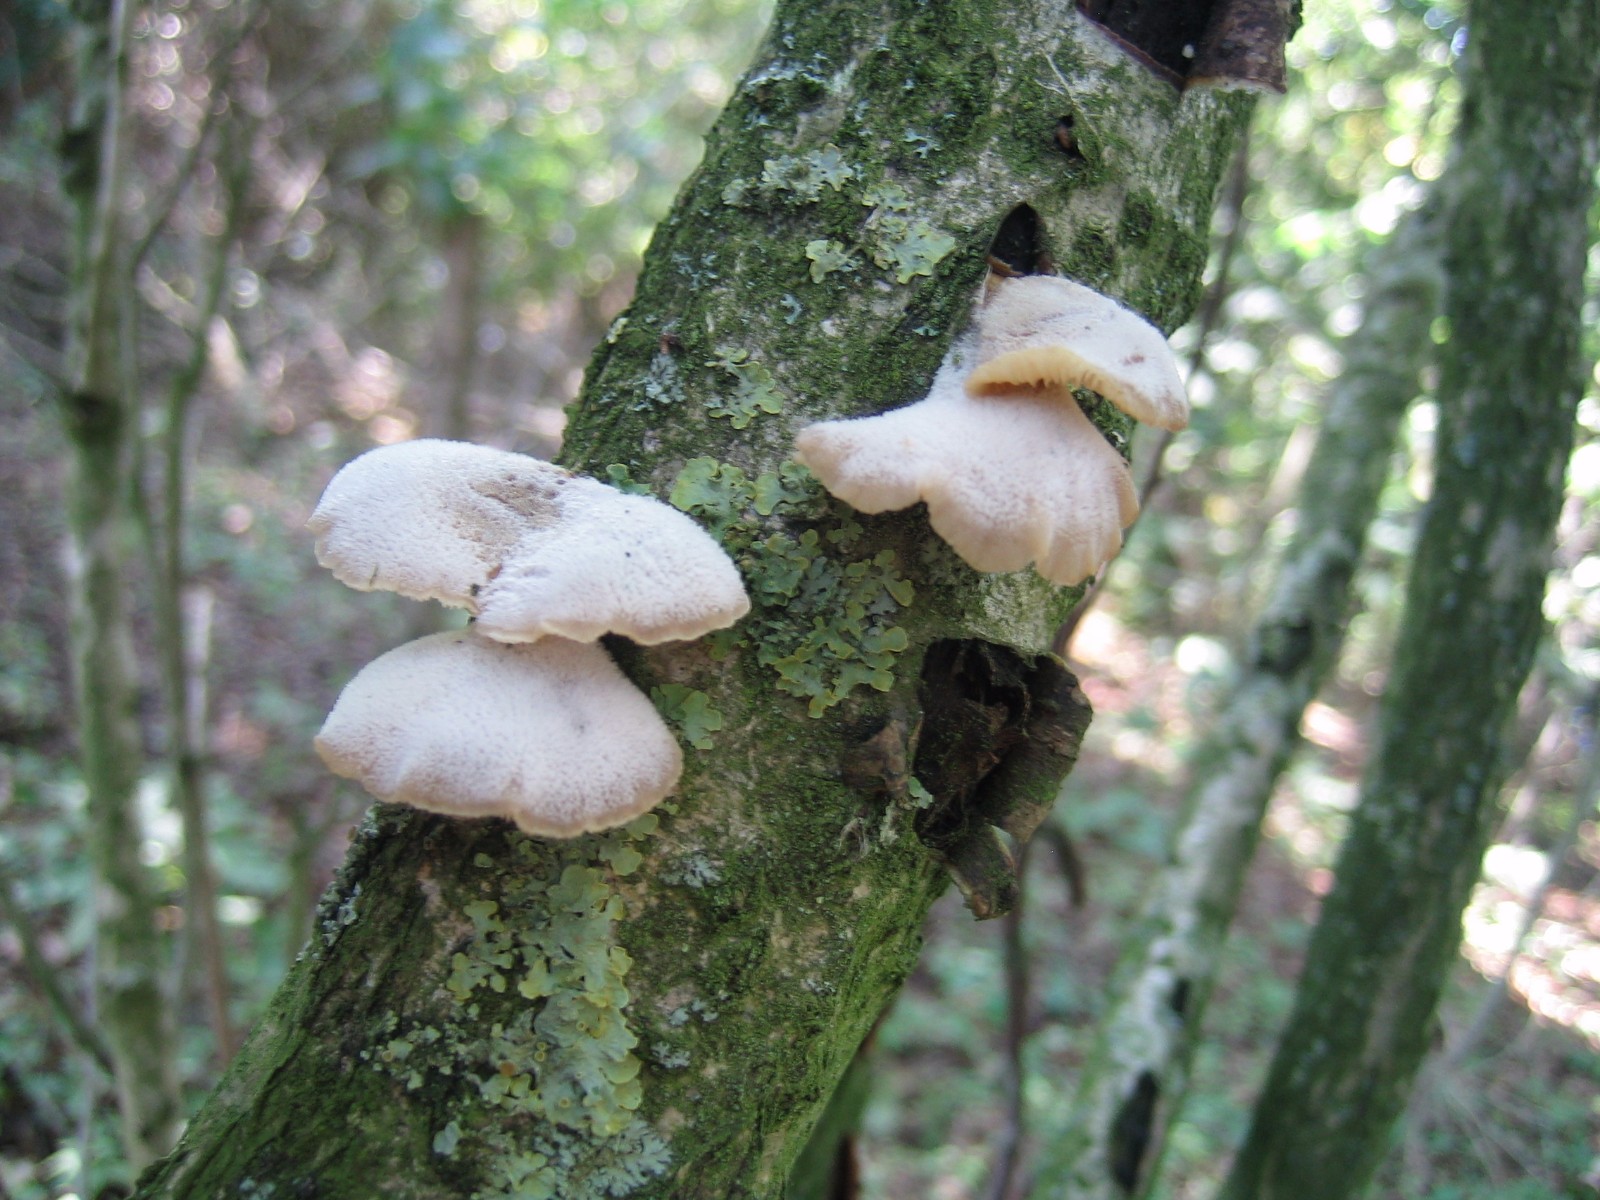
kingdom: Fungi
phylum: Basidiomycota
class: Agaricomycetes
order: Agaricales
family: Pleurotaceae
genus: Hohenbuehelia
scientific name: Hohenbuehelia
